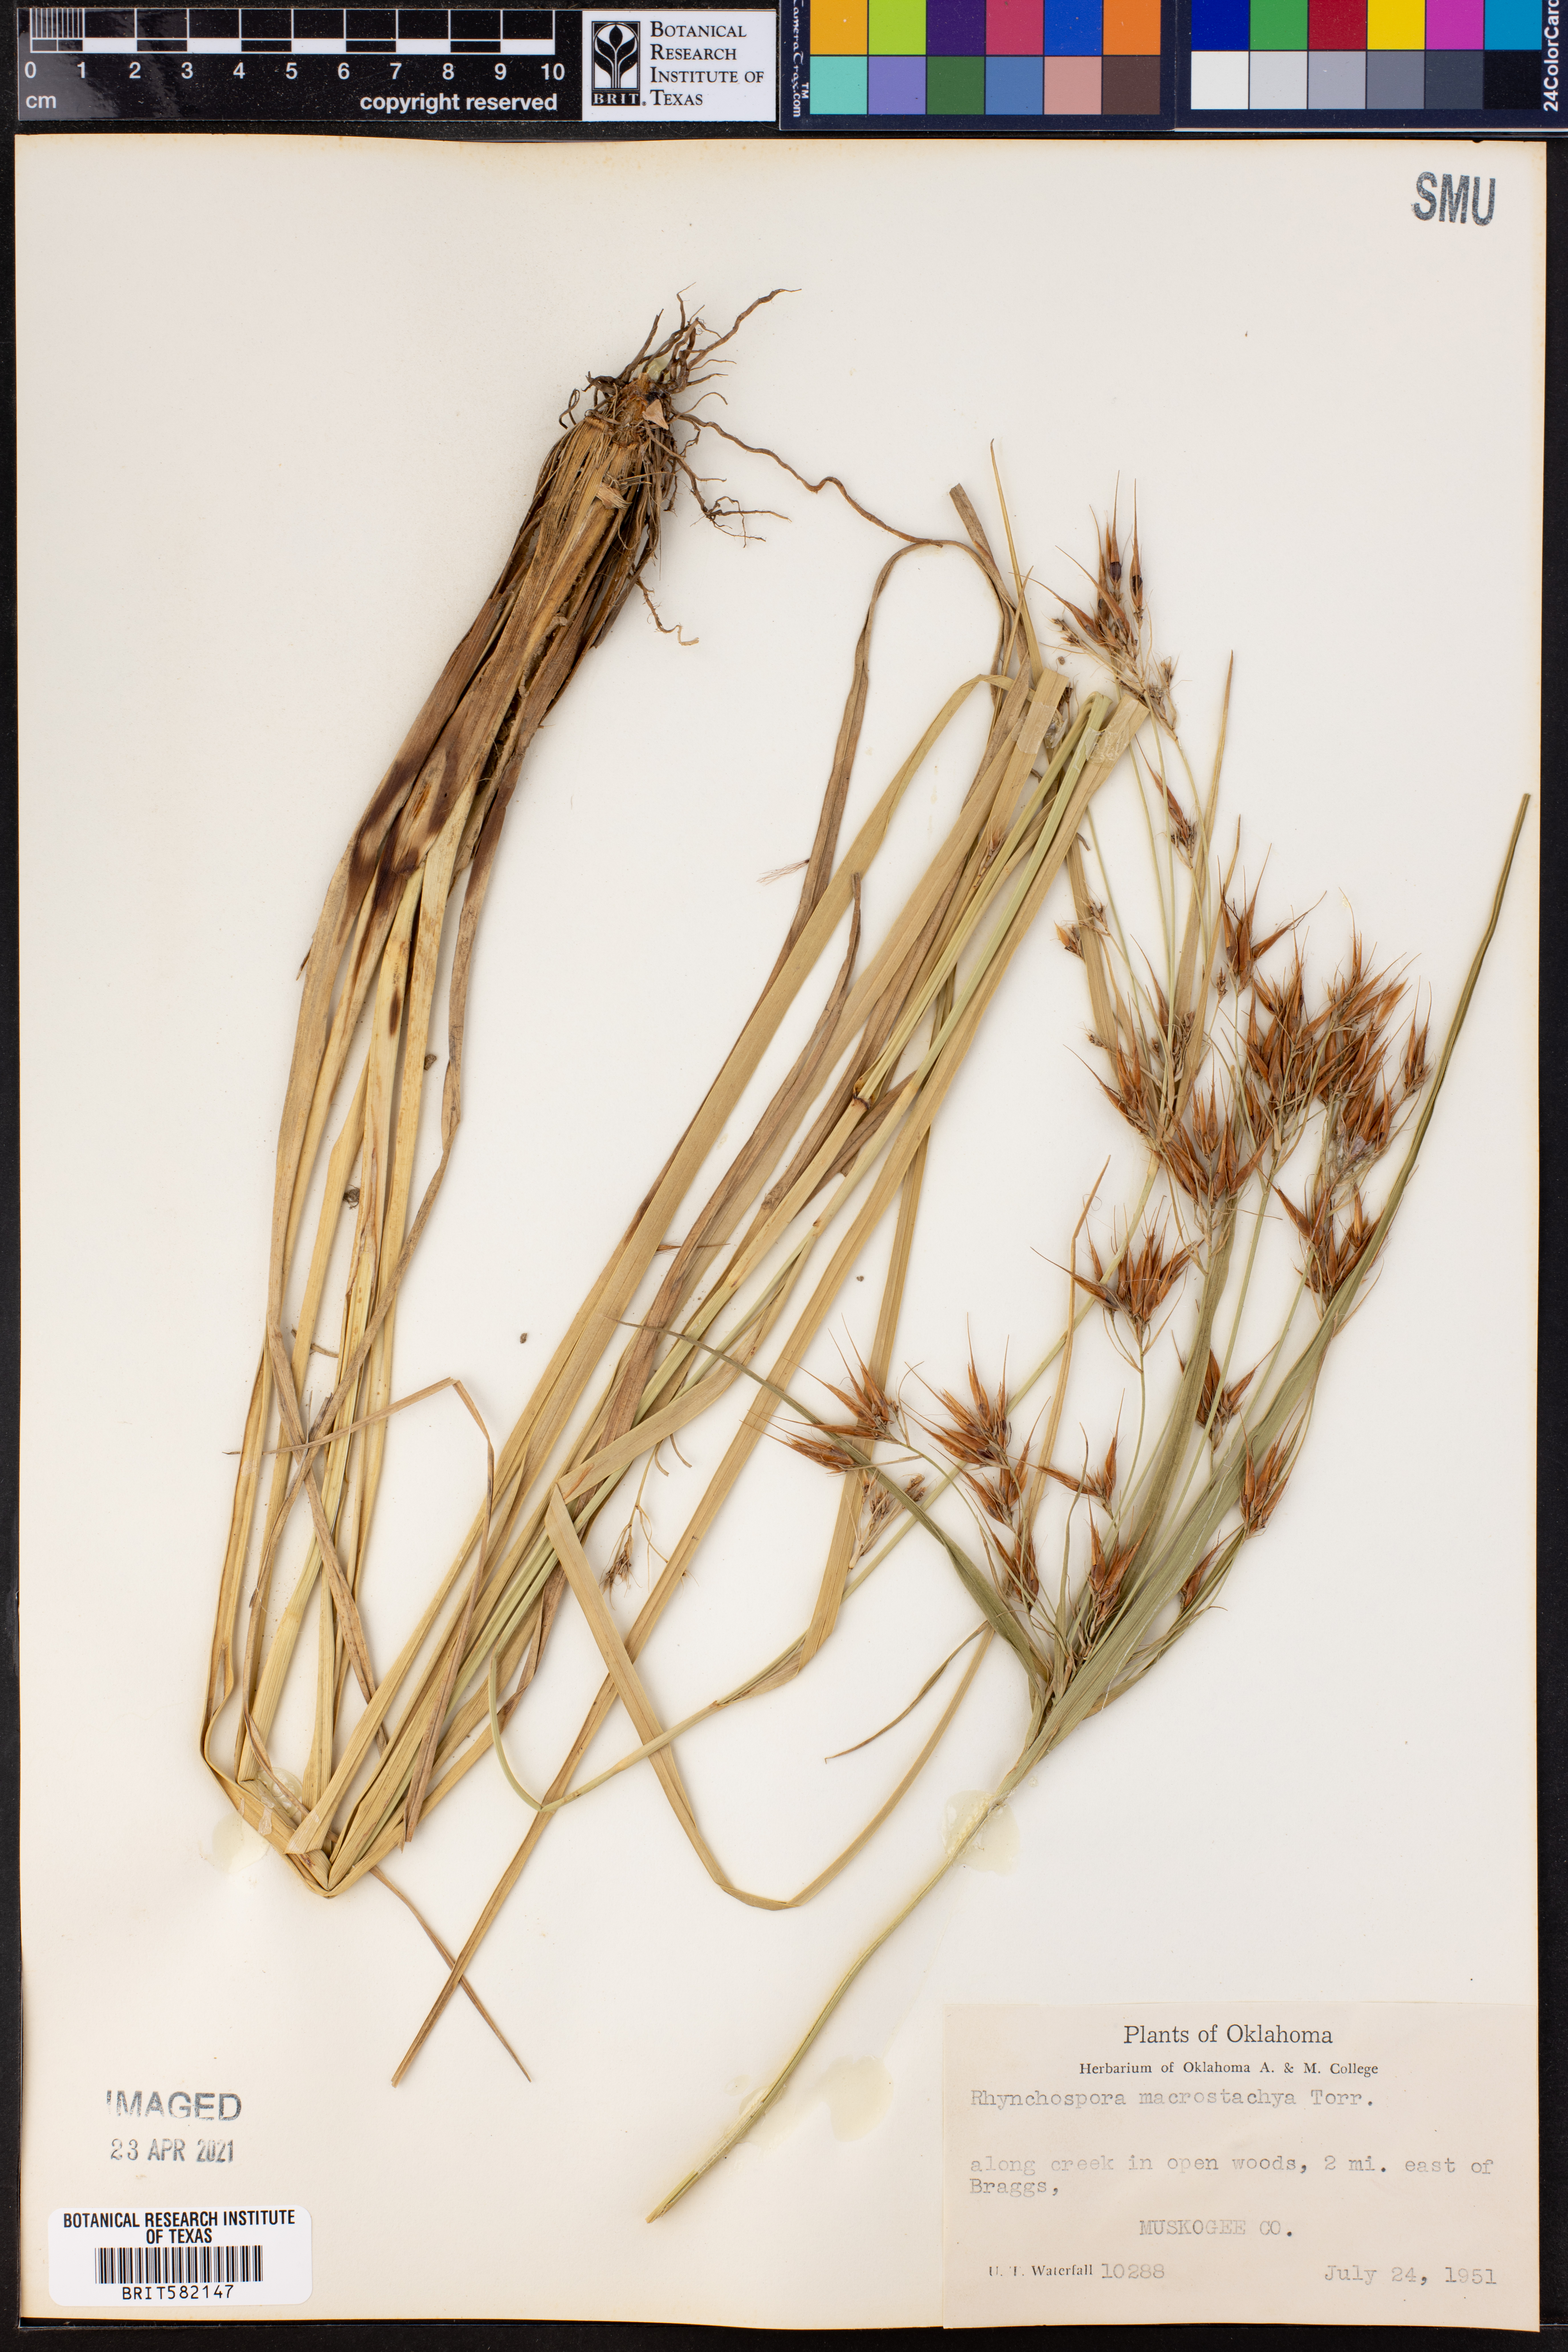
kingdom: Plantae
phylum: Tracheophyta
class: Liliopsida
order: Poales
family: Cyperaceae
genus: Rhynchospora
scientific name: Rhynchospora macrostachya
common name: Tall beakrush
